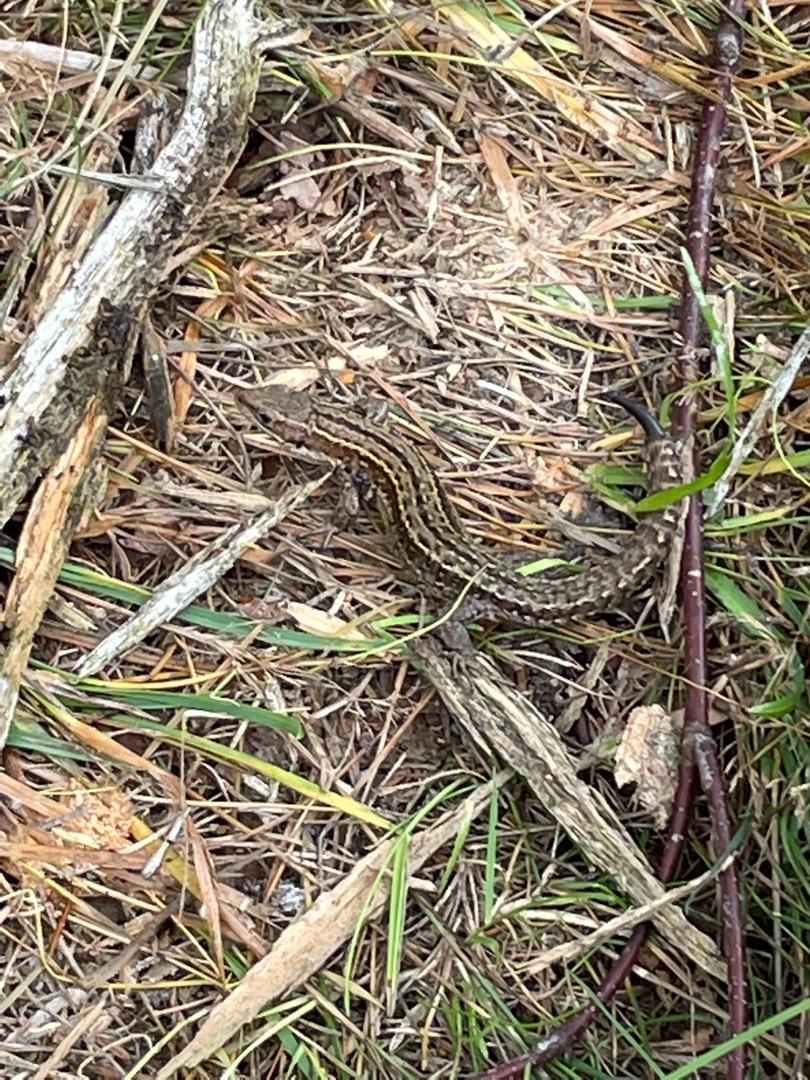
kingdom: Animalia
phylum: Chordata
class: Squamata
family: Lacertidae
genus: Zootoca
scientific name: Zootoca vivipara
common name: Skovfirben
